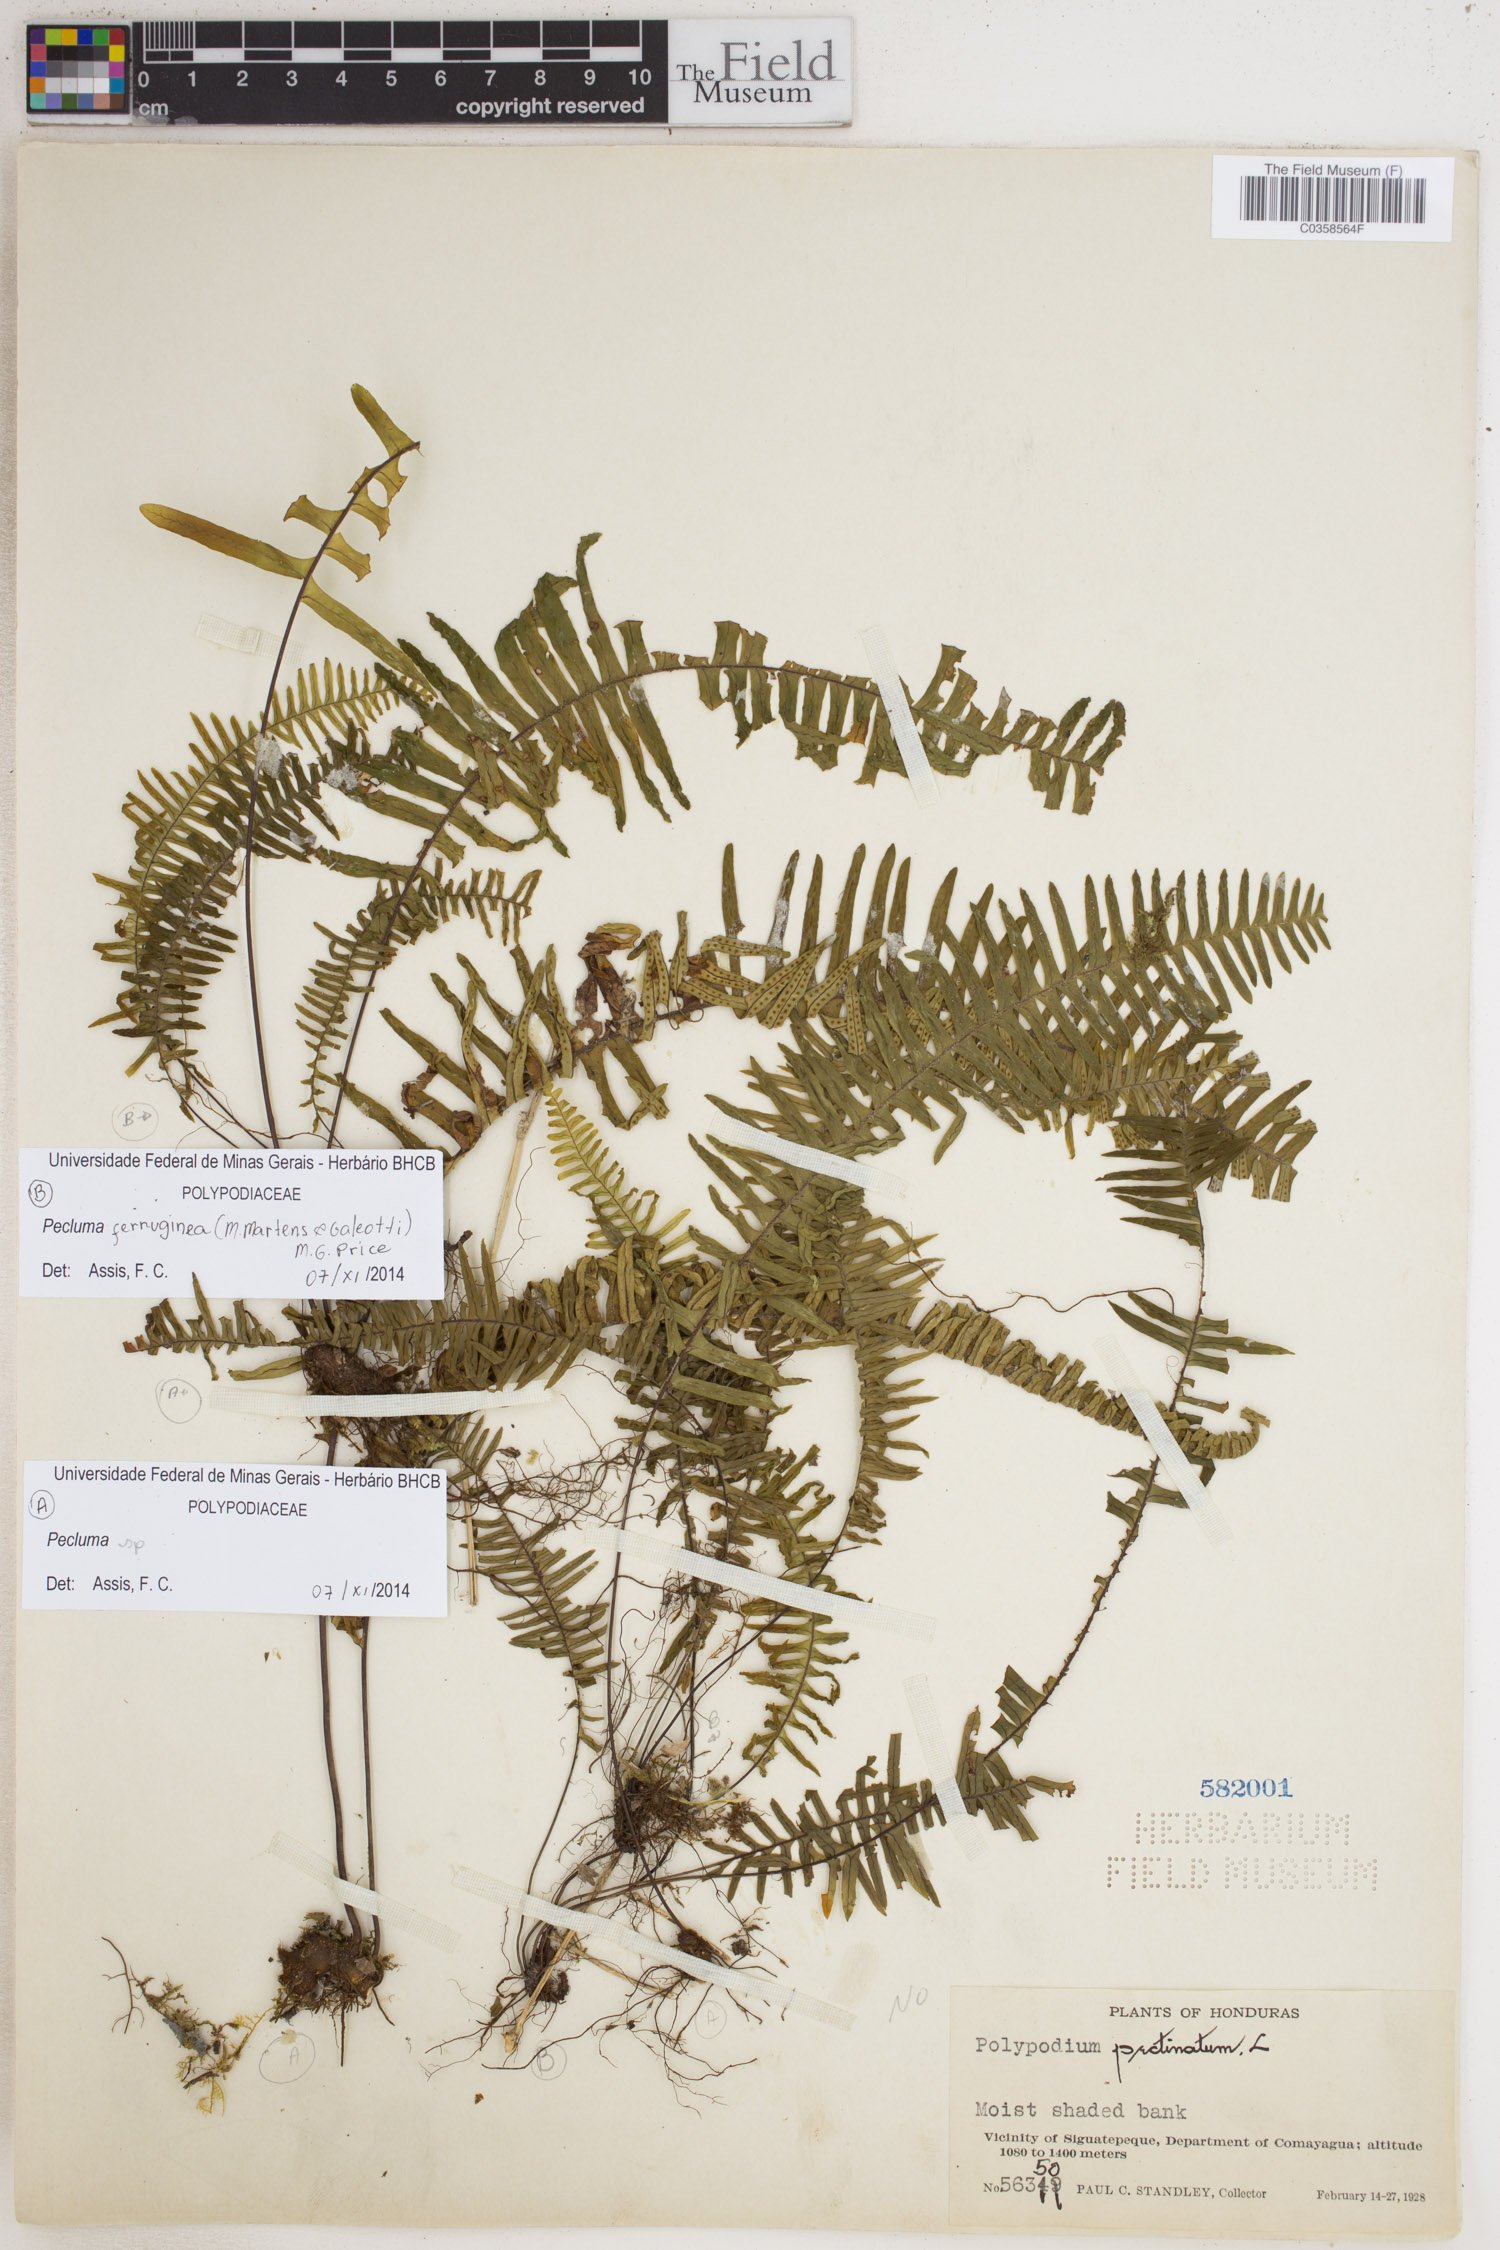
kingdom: Plantae
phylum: Tracheophyta
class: Polypodiopsida
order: Polypodiales
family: Polypodiaceae
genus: Pecluma
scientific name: Pecluma
